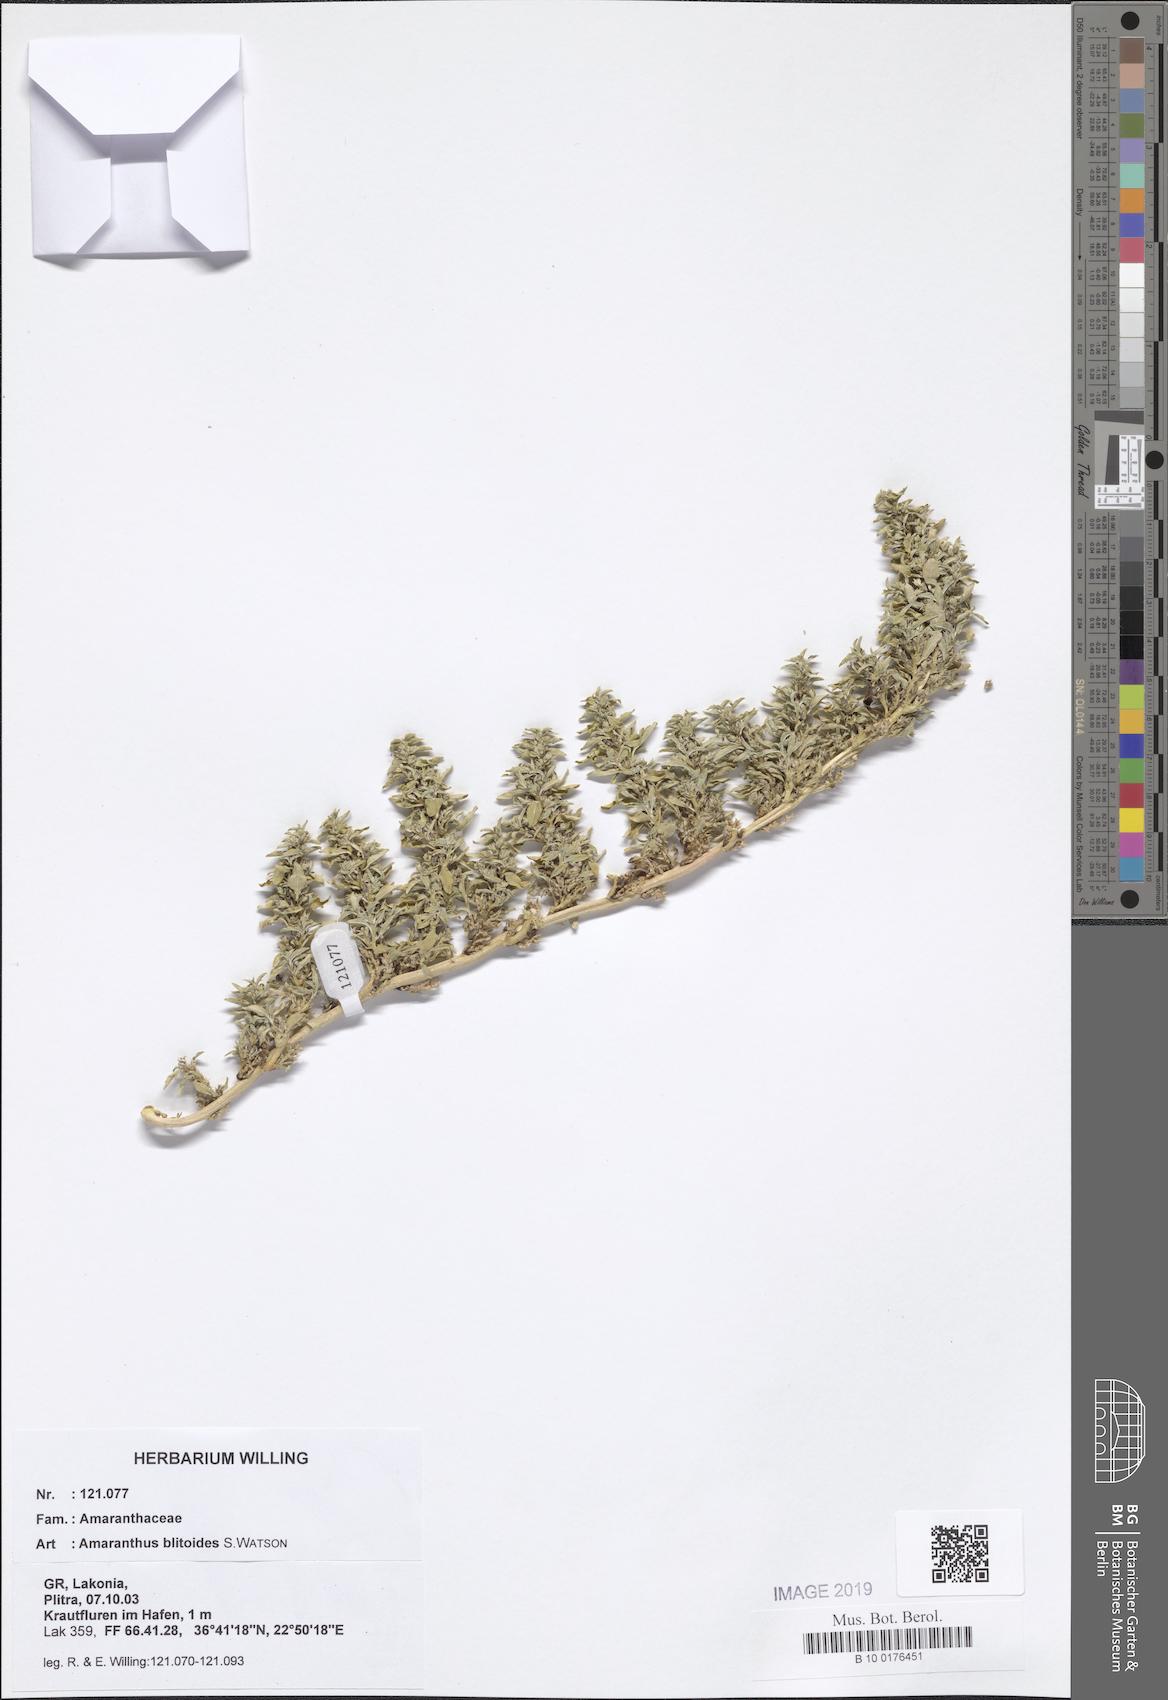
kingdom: Plantae
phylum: Tracheophyta
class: Magnoliopsida
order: Caryophyllales
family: Amaranthaceae
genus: Amaranthus
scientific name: Amaranthus blitoides
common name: Prostrate pigweed
